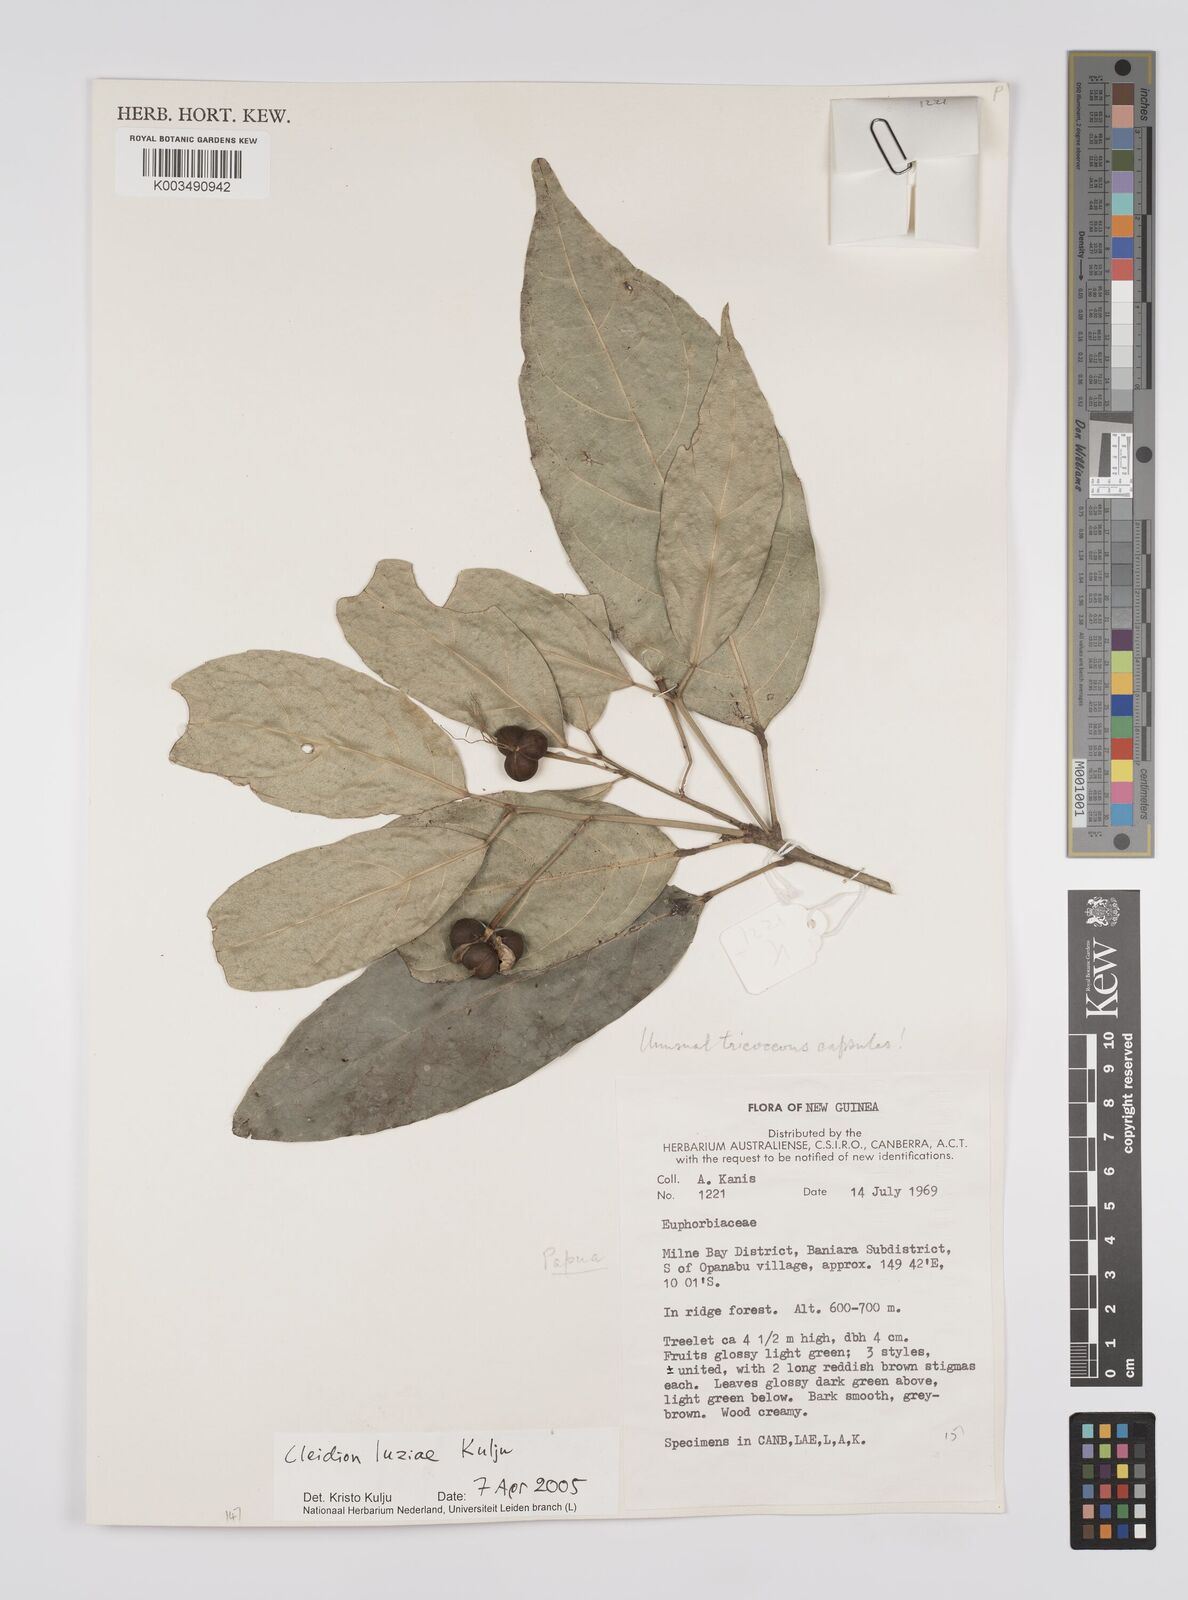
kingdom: Plantae
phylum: Tracheophyta
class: Magnoliopsida
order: Malpighiales
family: Euphorbiaceae
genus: Cleidion
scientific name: Cleidion luziae
